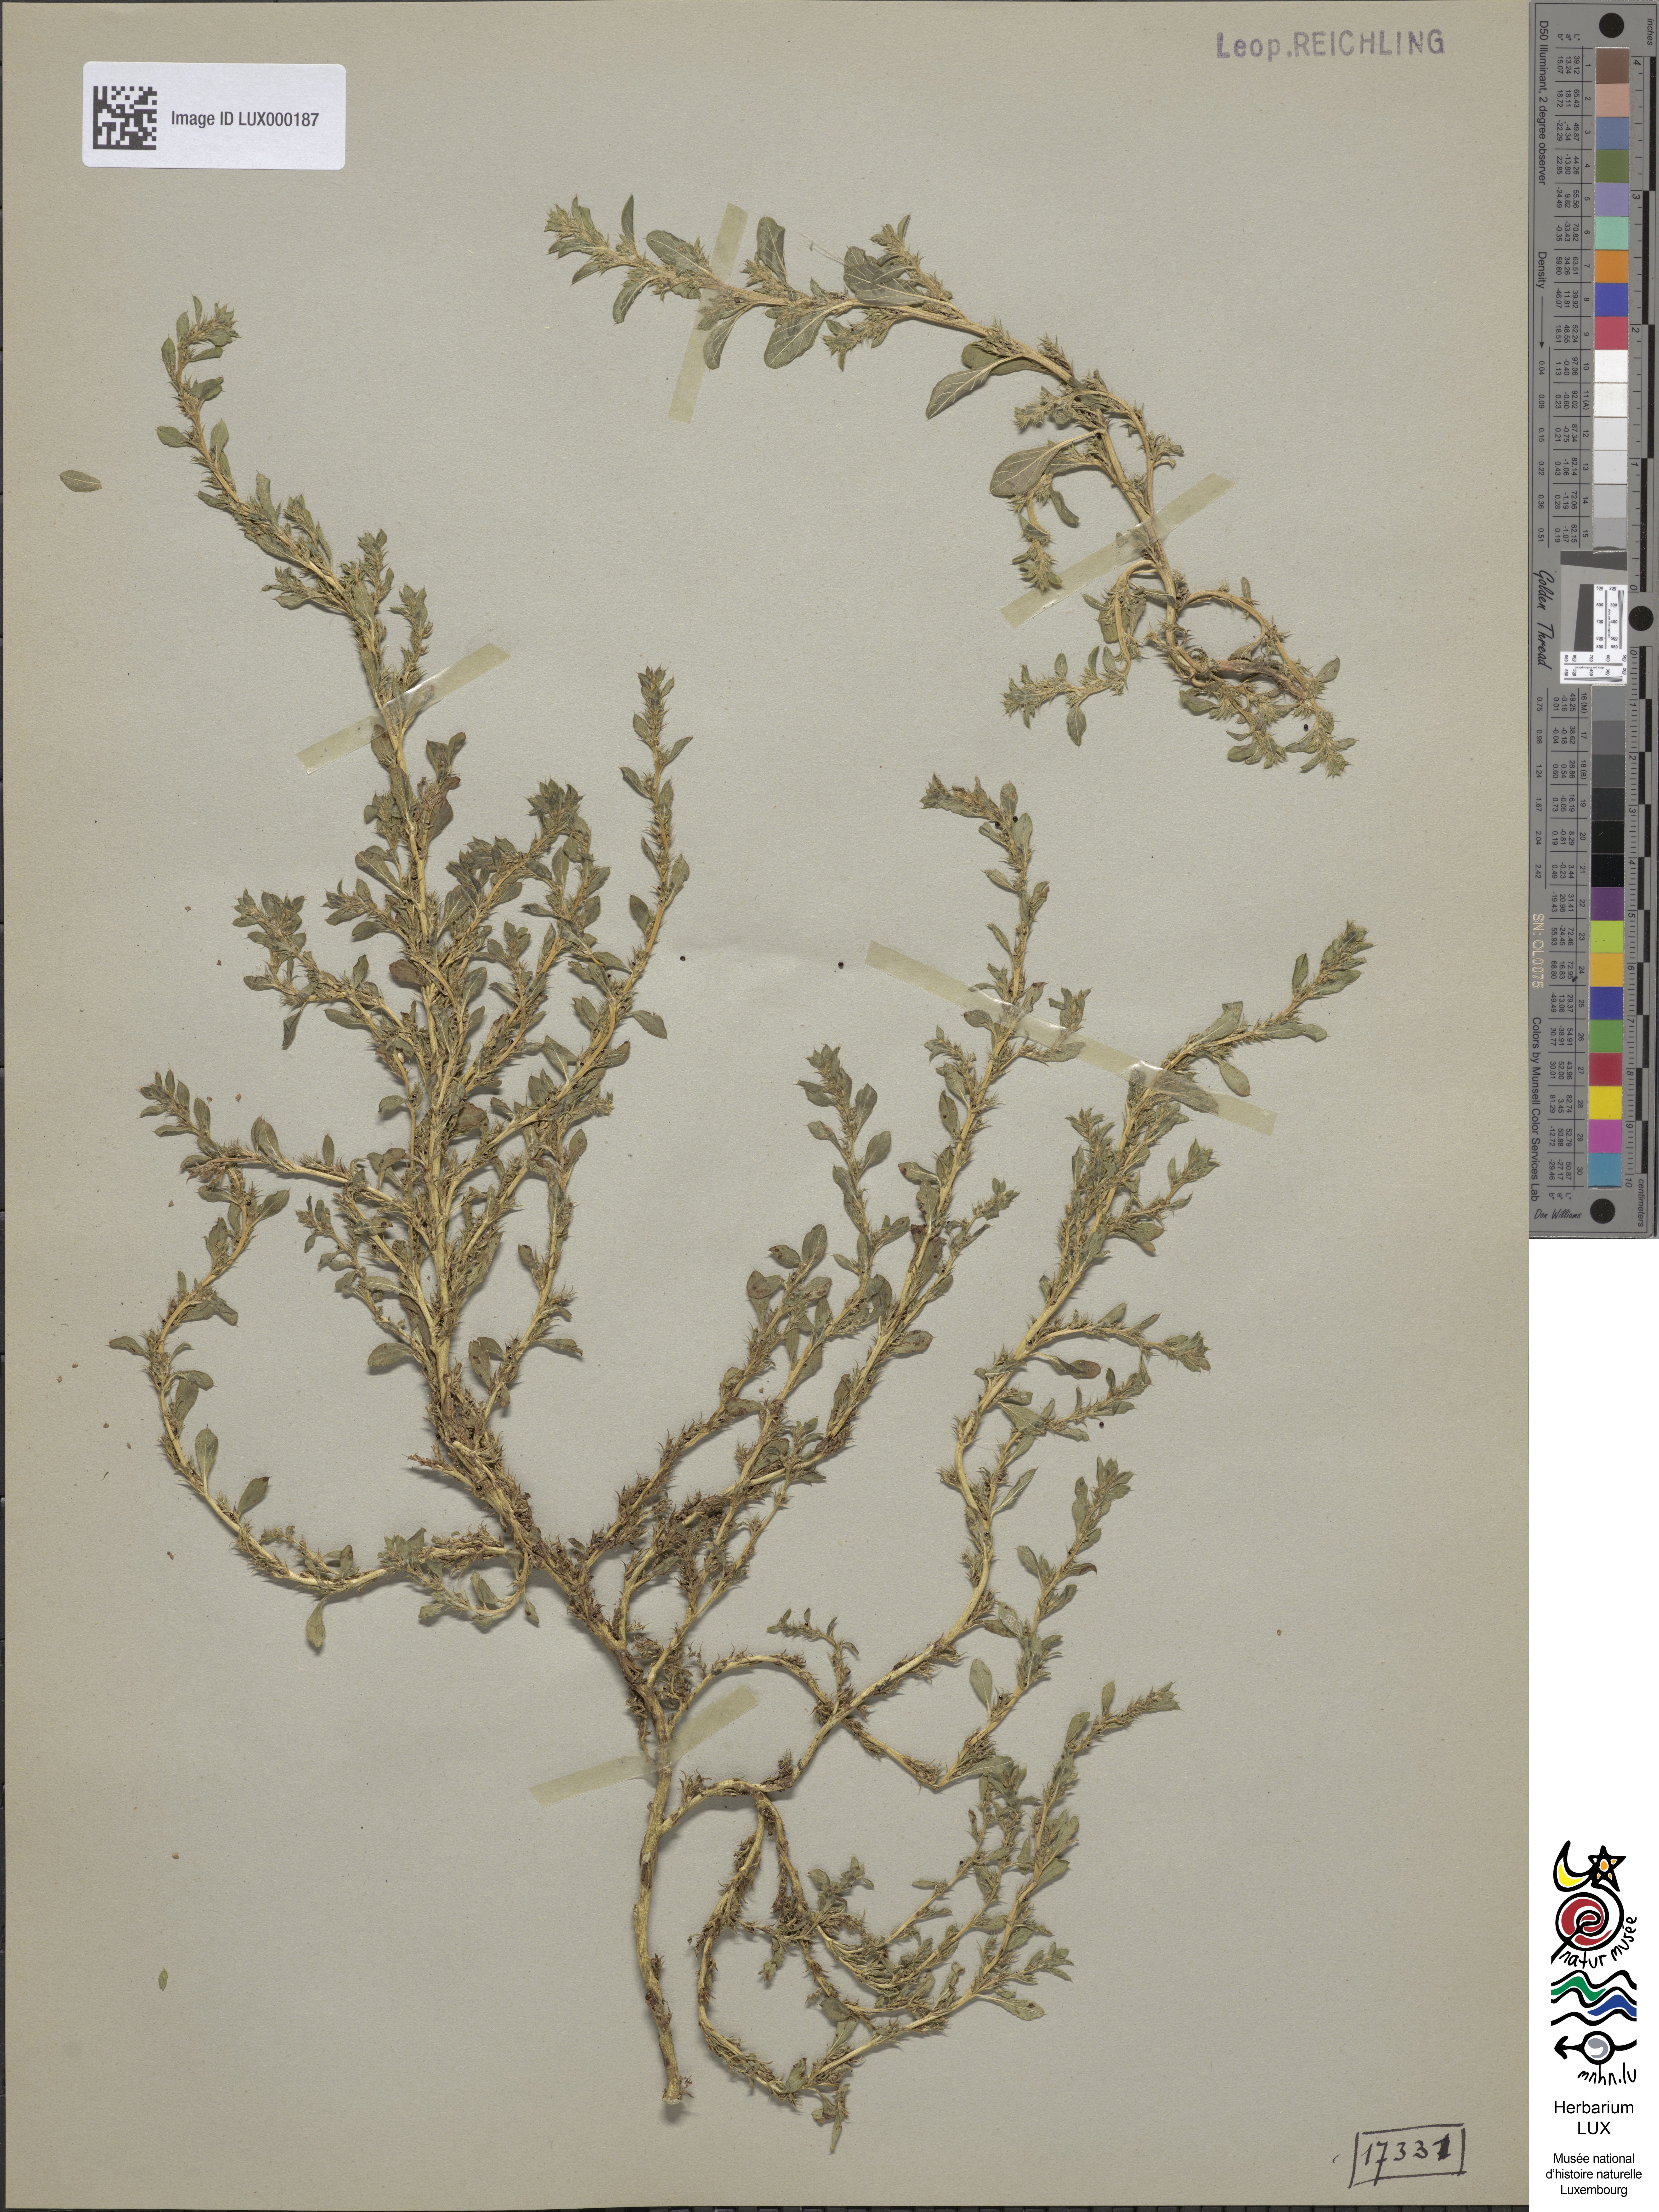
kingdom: Plantae
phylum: Tracheophyta
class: Magnoliopsida
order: Caryophyllales
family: Amaranthaceae
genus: Amaranthus
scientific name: Amaranthus albus
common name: White pigweed
